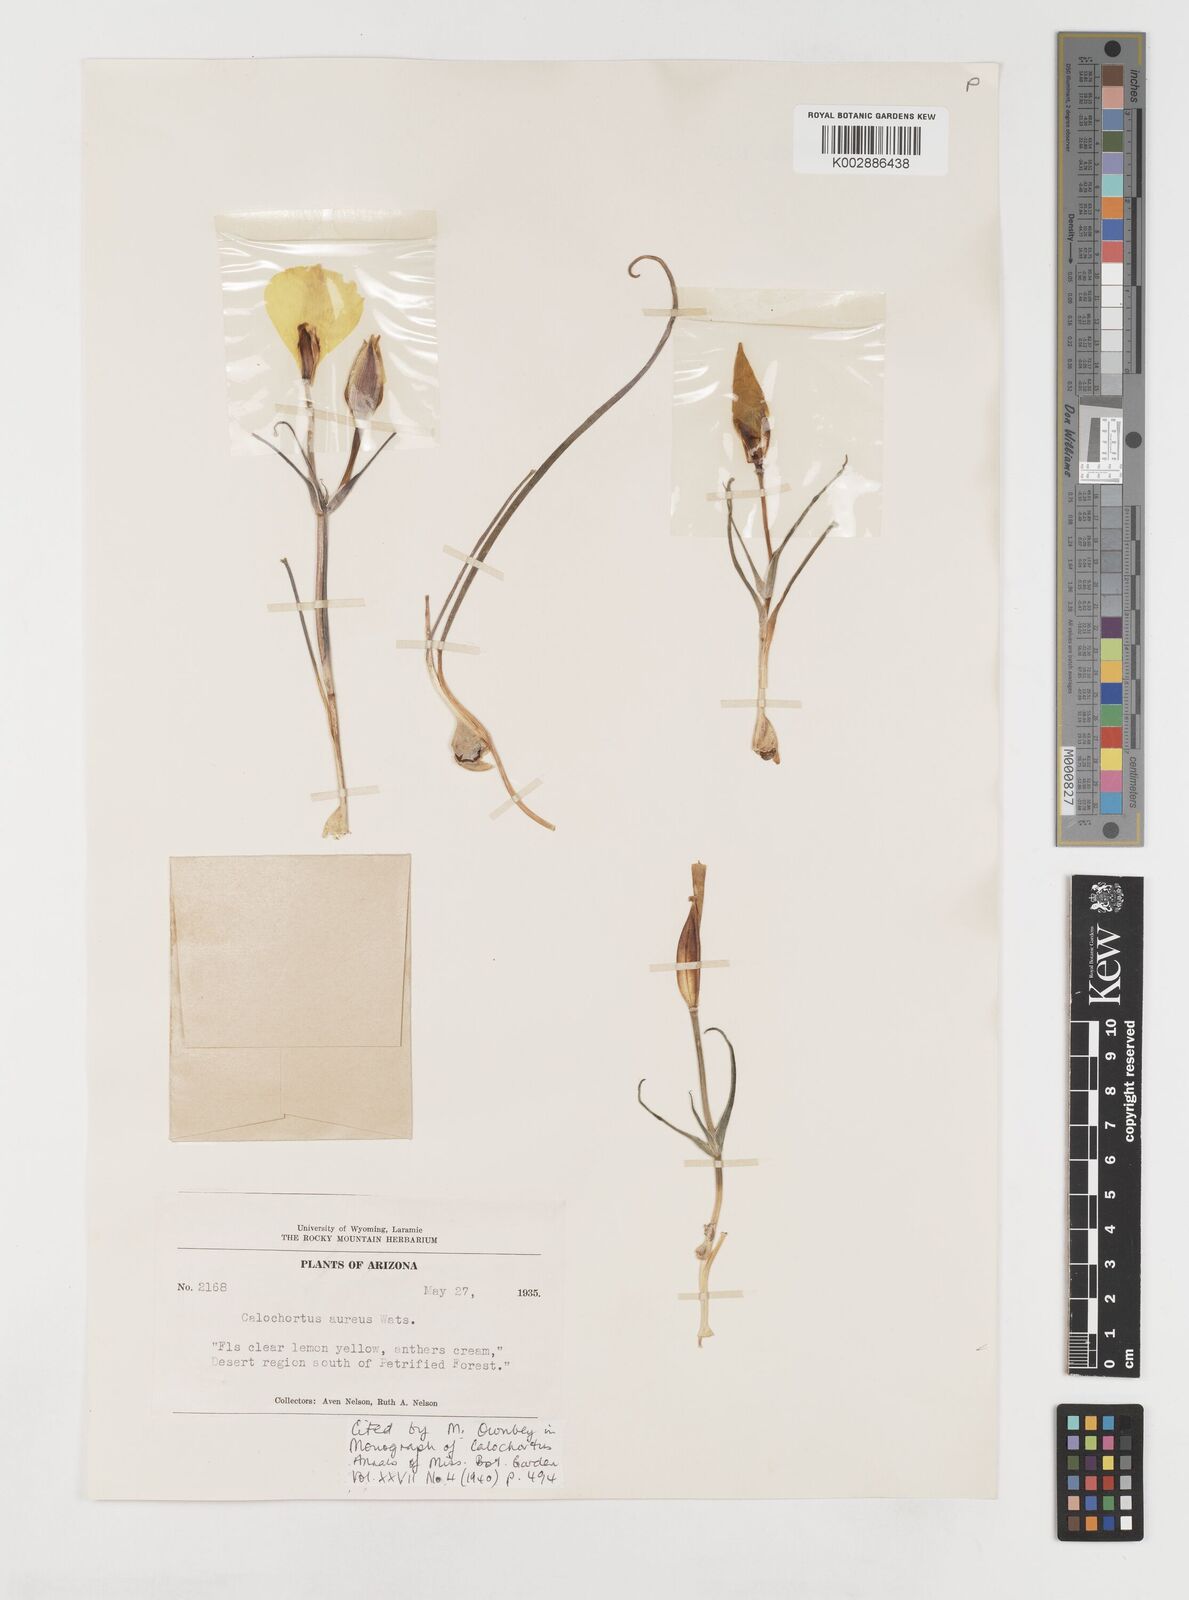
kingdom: Plantae
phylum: Tracheophyta
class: Liliopsida
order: Liliales
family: Liliaceae
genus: Calochortus
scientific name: Calochortus aureus
